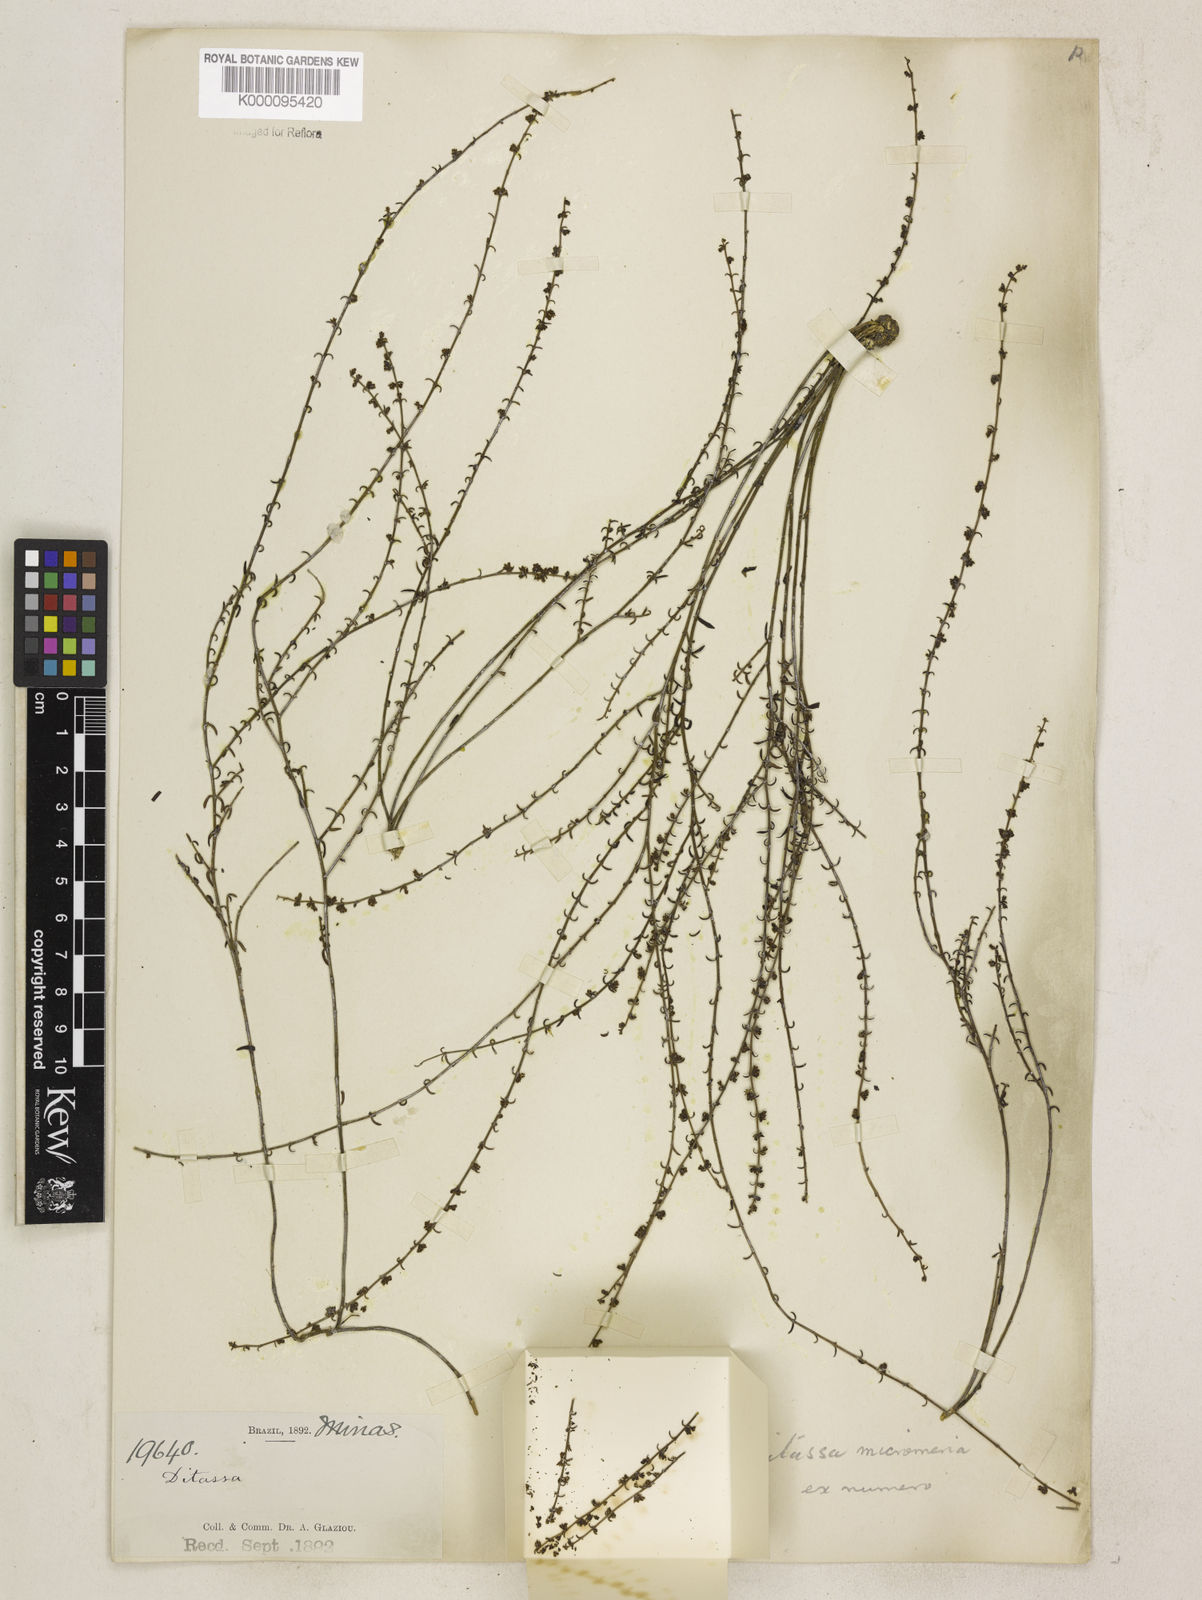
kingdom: Plantae
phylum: Tracheophyta
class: Magnoliopsida
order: Gentianales
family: Apocynaceae
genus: Minaria
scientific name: Minaria micromeria
